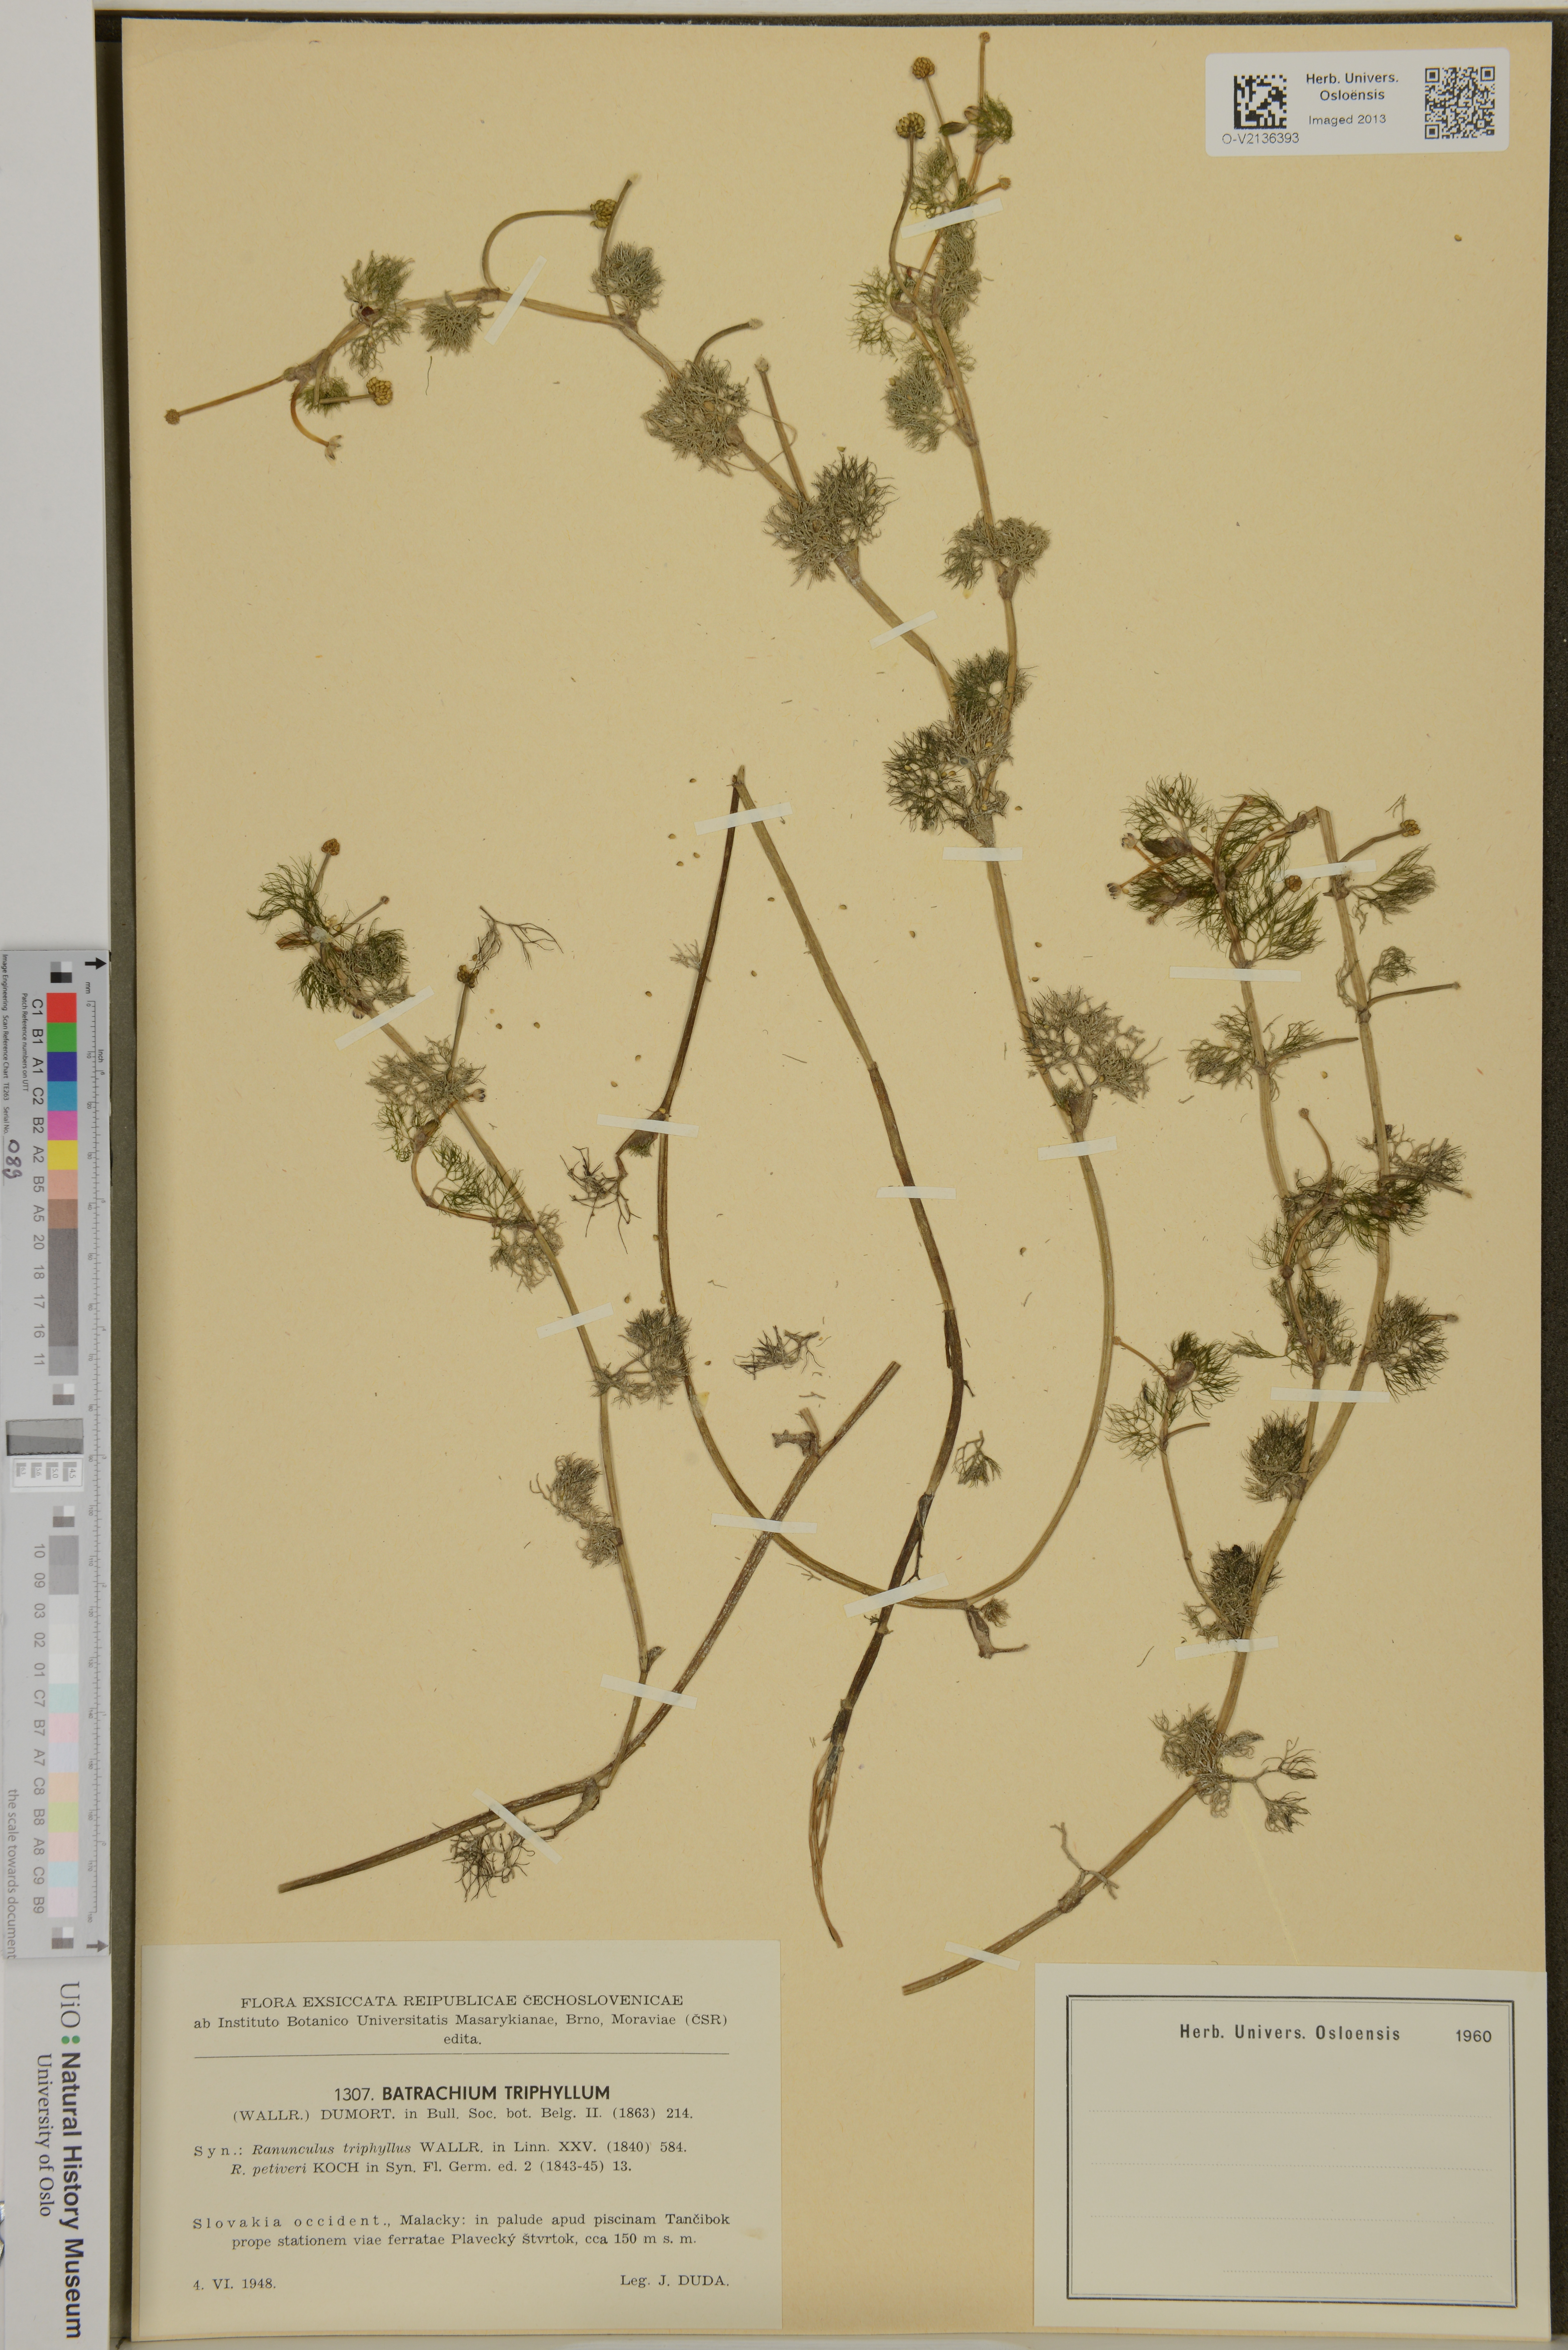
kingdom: Plantae
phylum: Tracheophyta
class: Magnoliopsida
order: Ranunculales
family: Ranunculaceae
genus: Ranunculus
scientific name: Ranunculus peltatus
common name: Pond water-crowfoot
